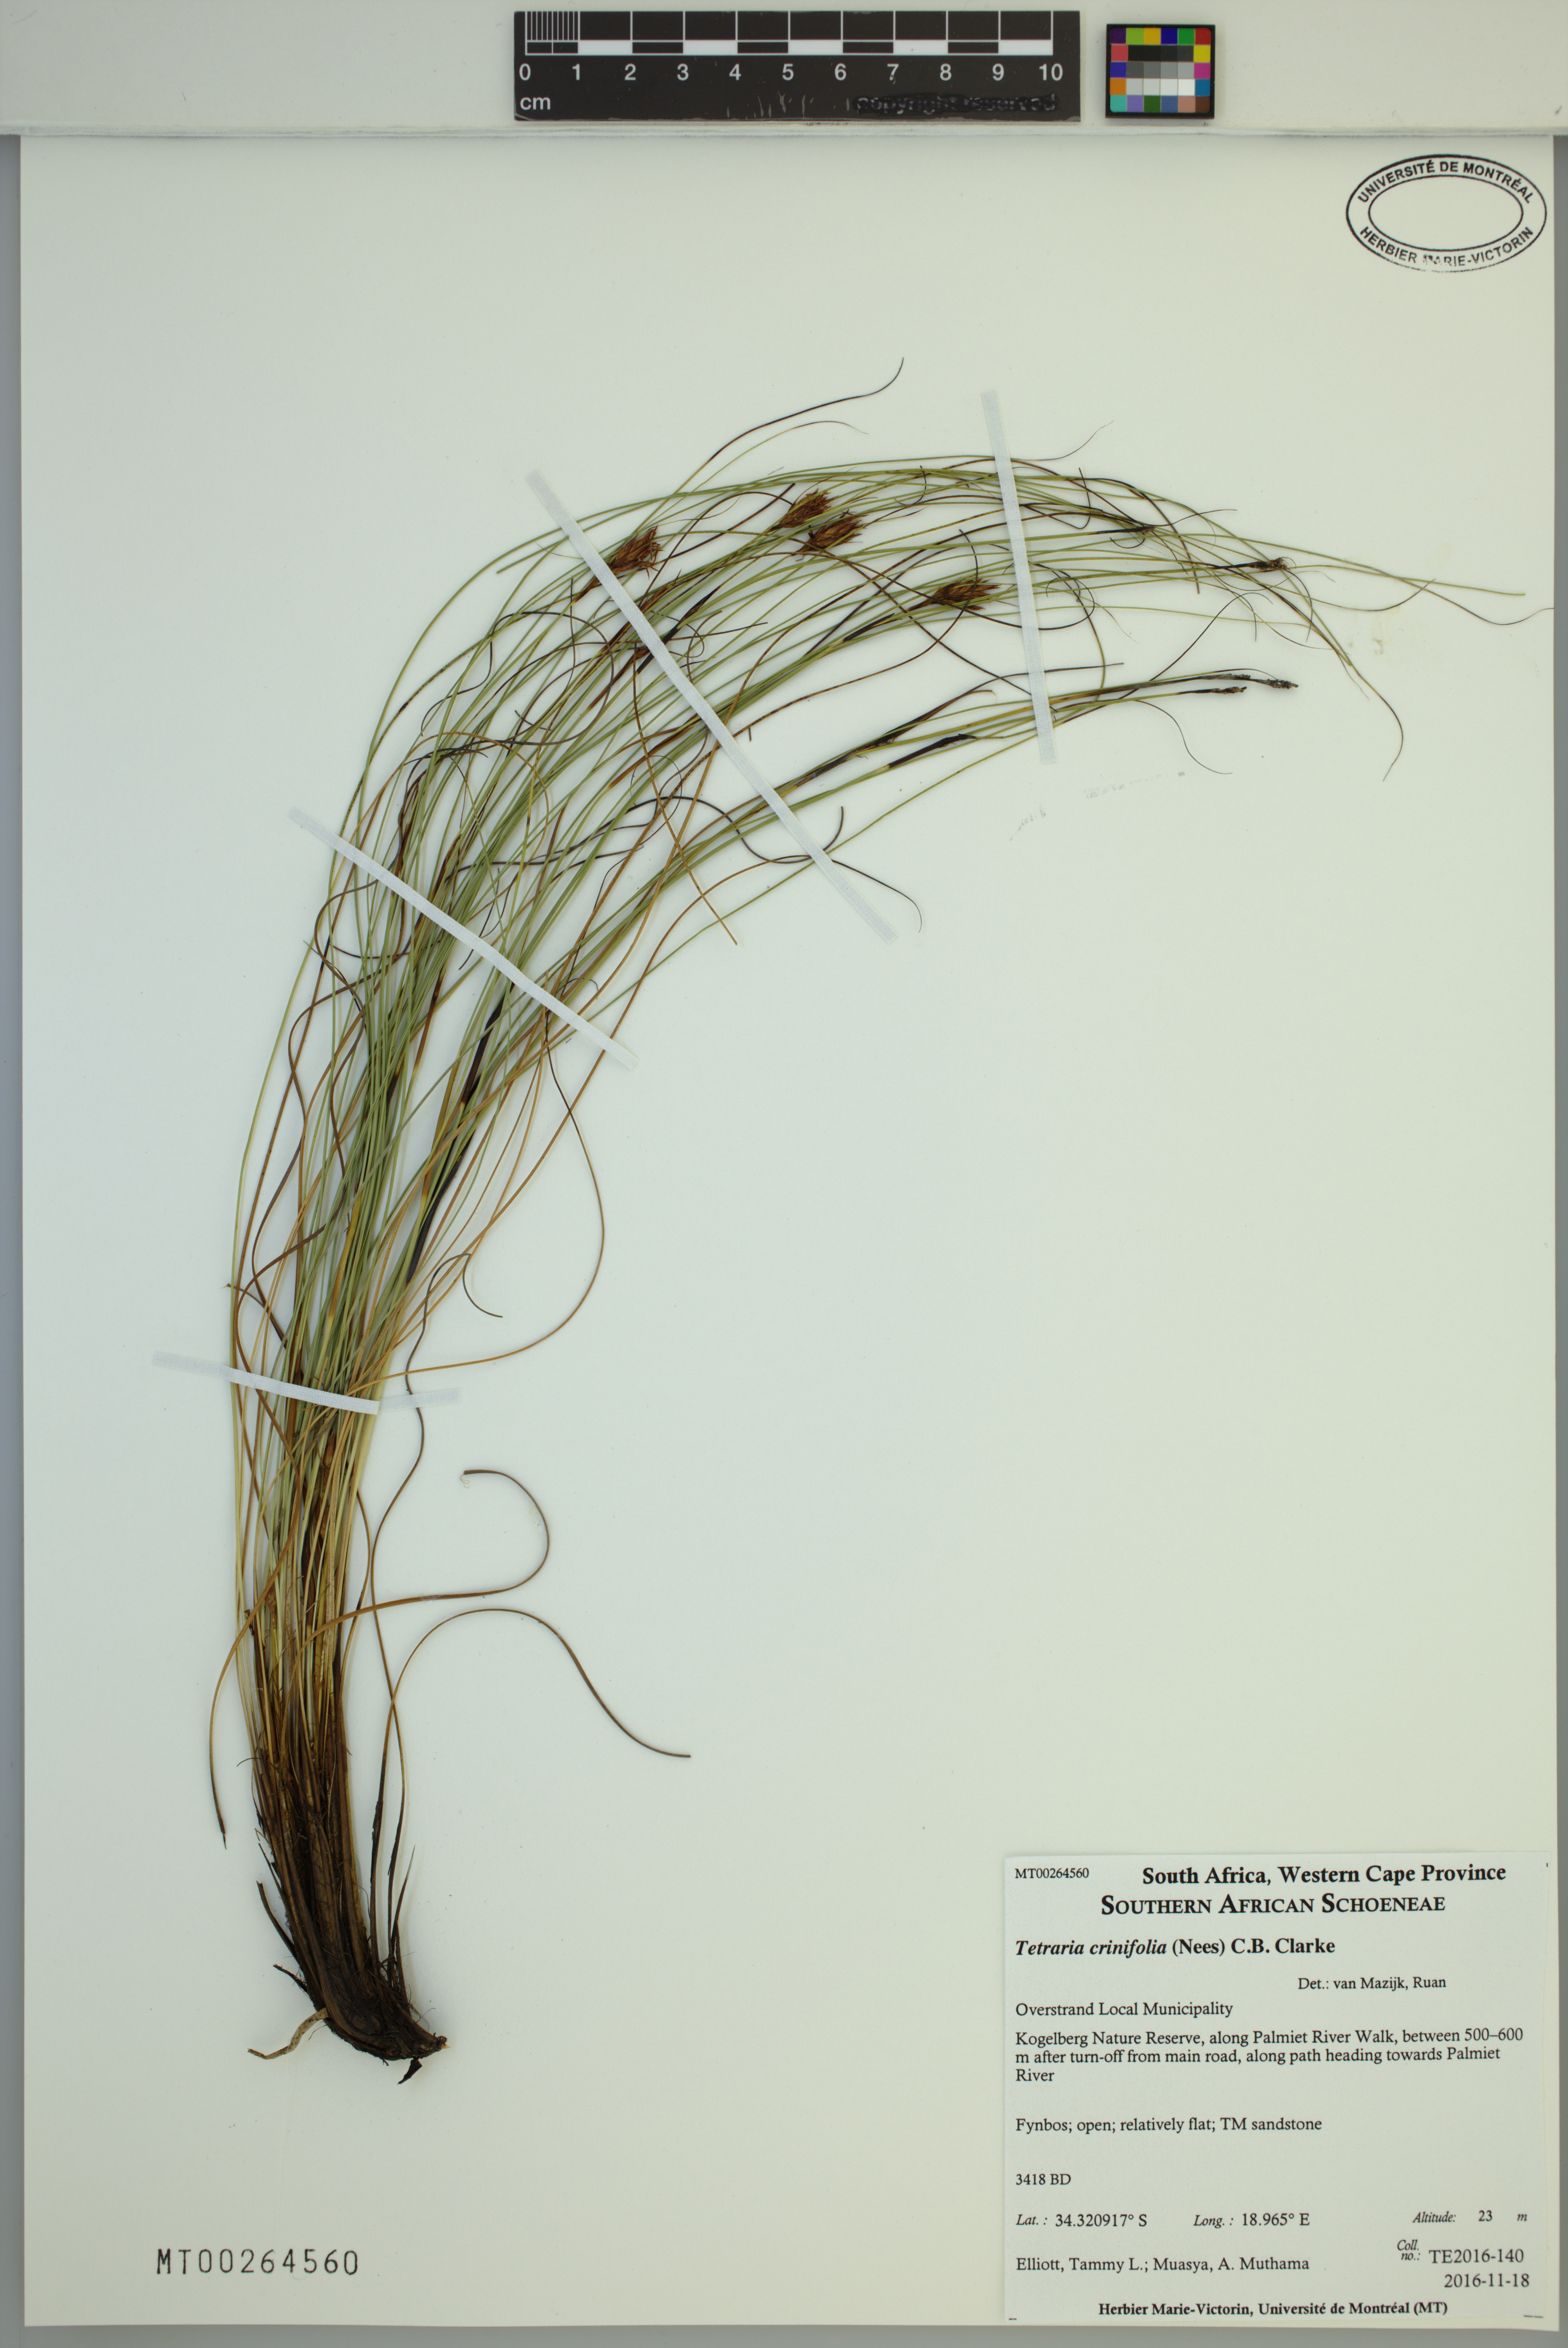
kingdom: Plantae
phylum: Tracheophyta
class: Liliopsida
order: Poales
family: Cyperaceae
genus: Tetraria
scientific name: Tetraria crinifolia
